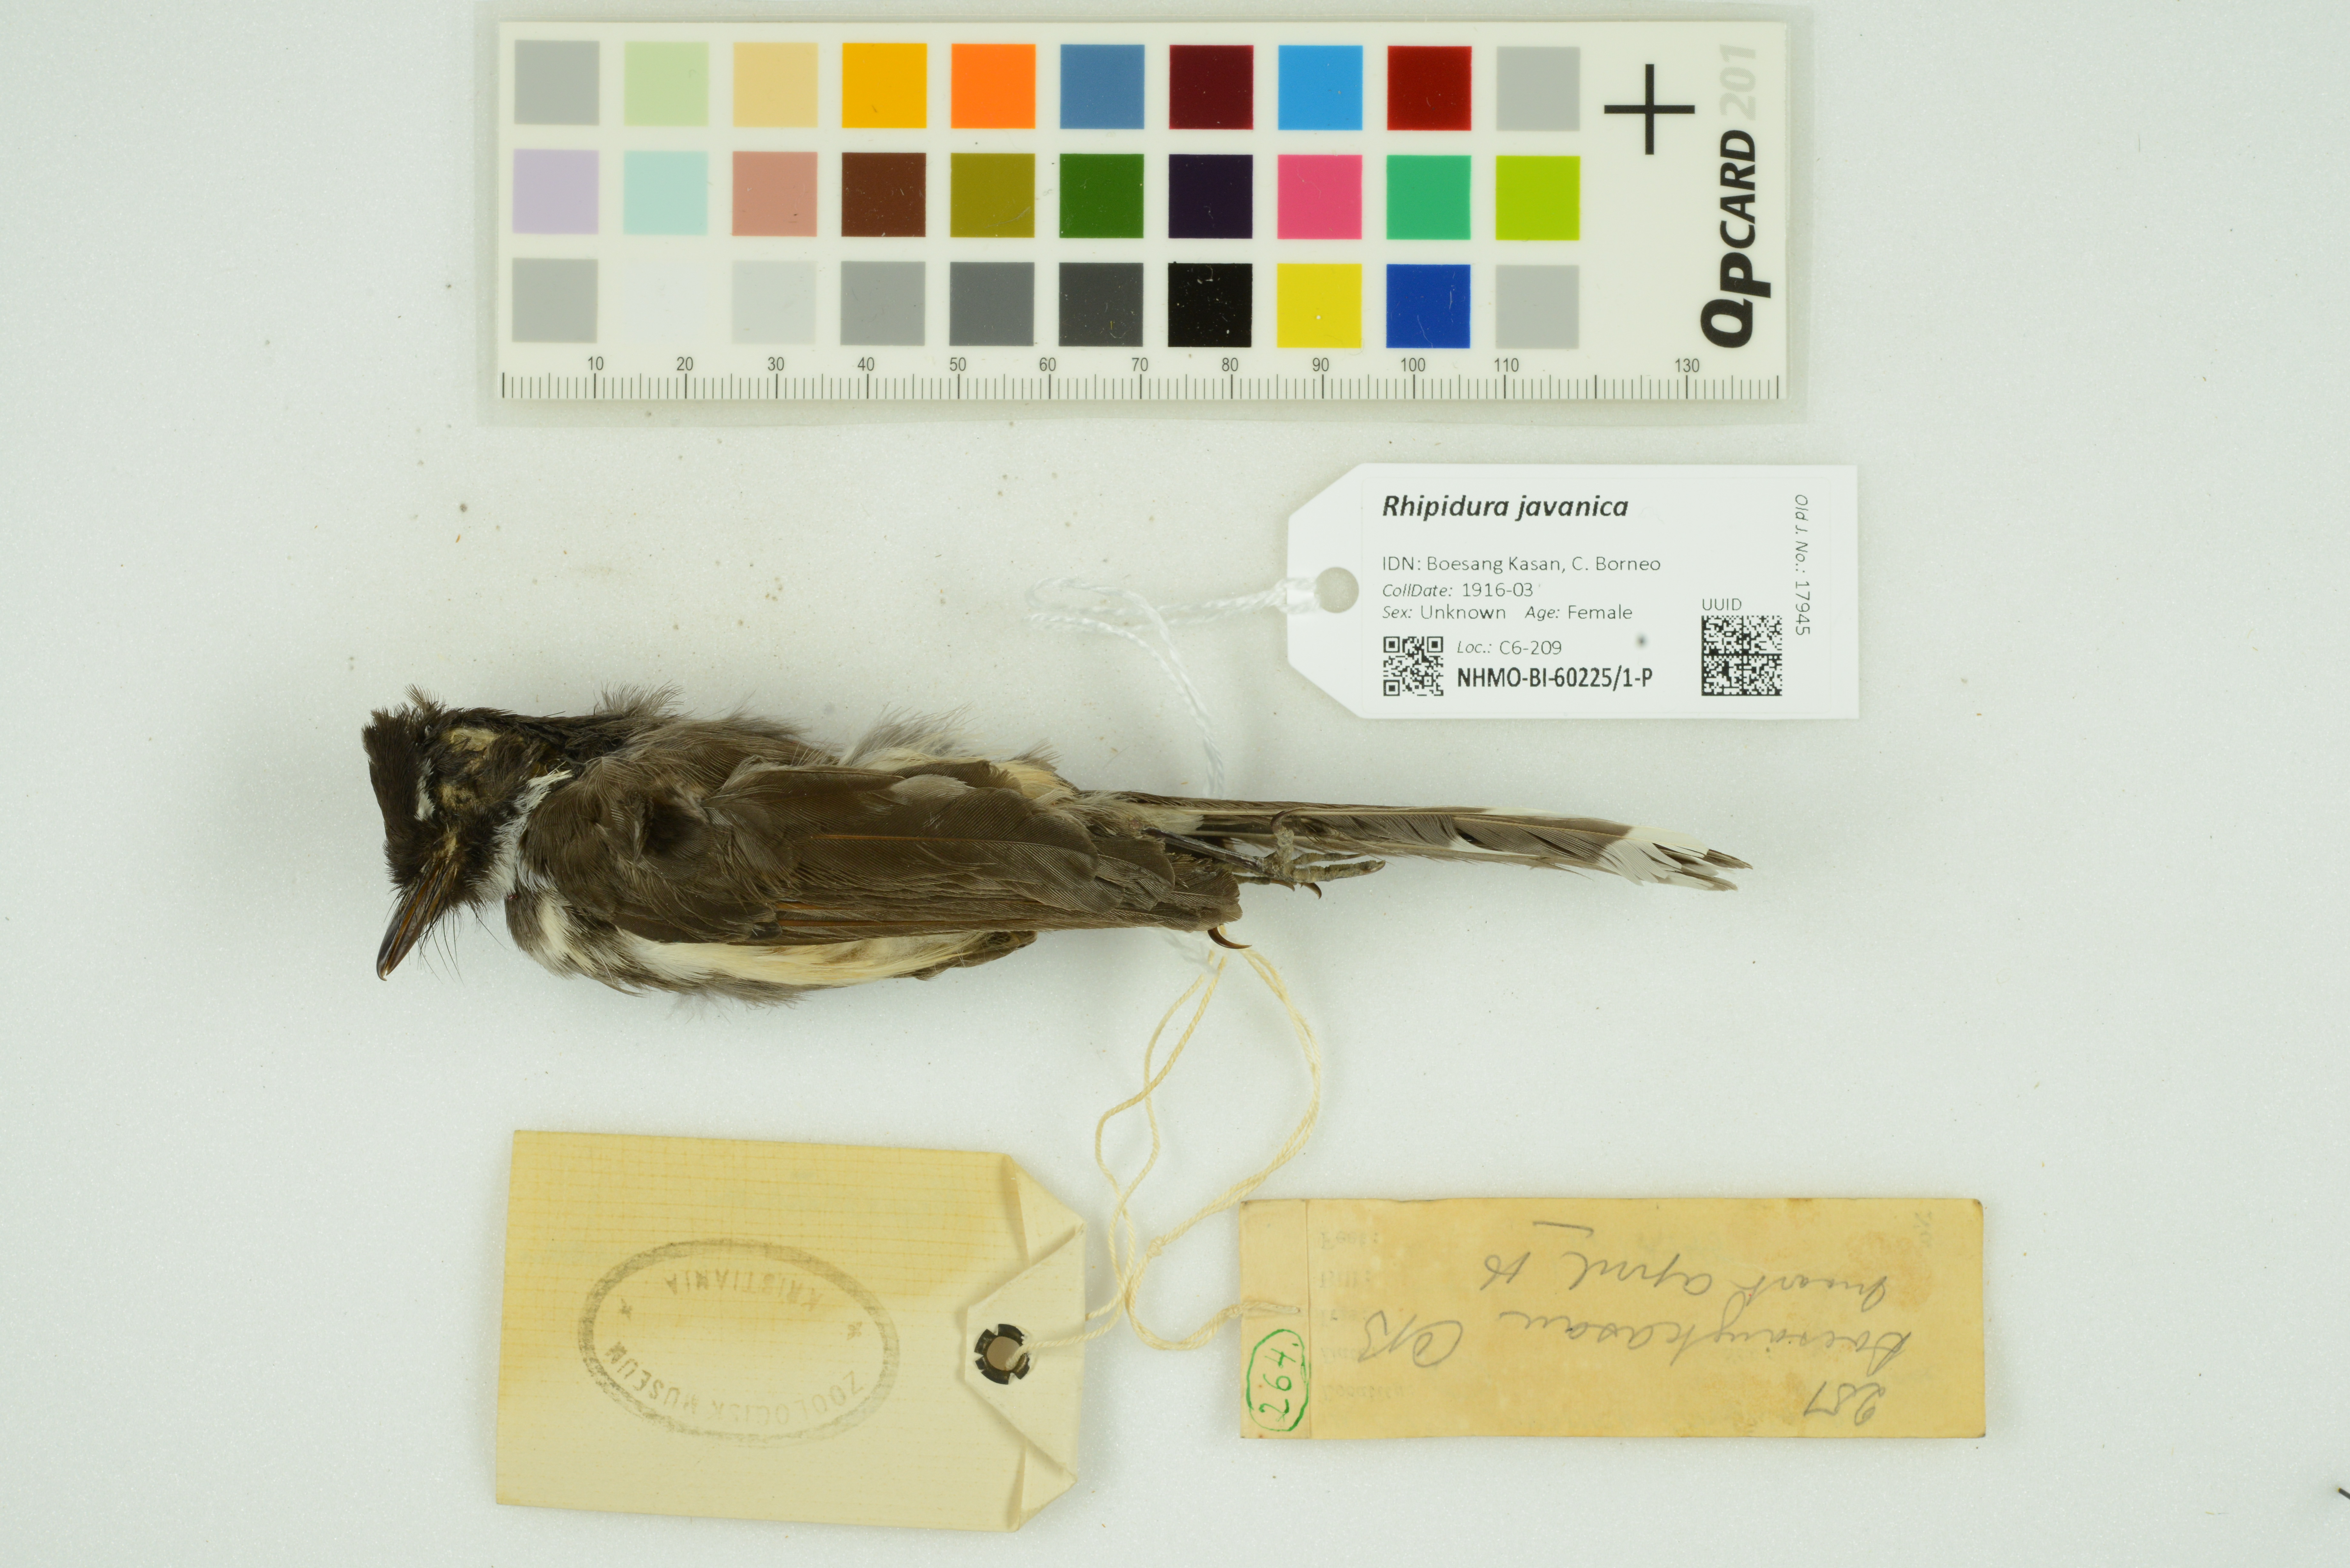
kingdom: Animalia
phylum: Chordata
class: Aves
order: Passeriformes
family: Rhipiduridae
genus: Rhipidura
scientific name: Rhipidura javanica
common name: Pied fantail
